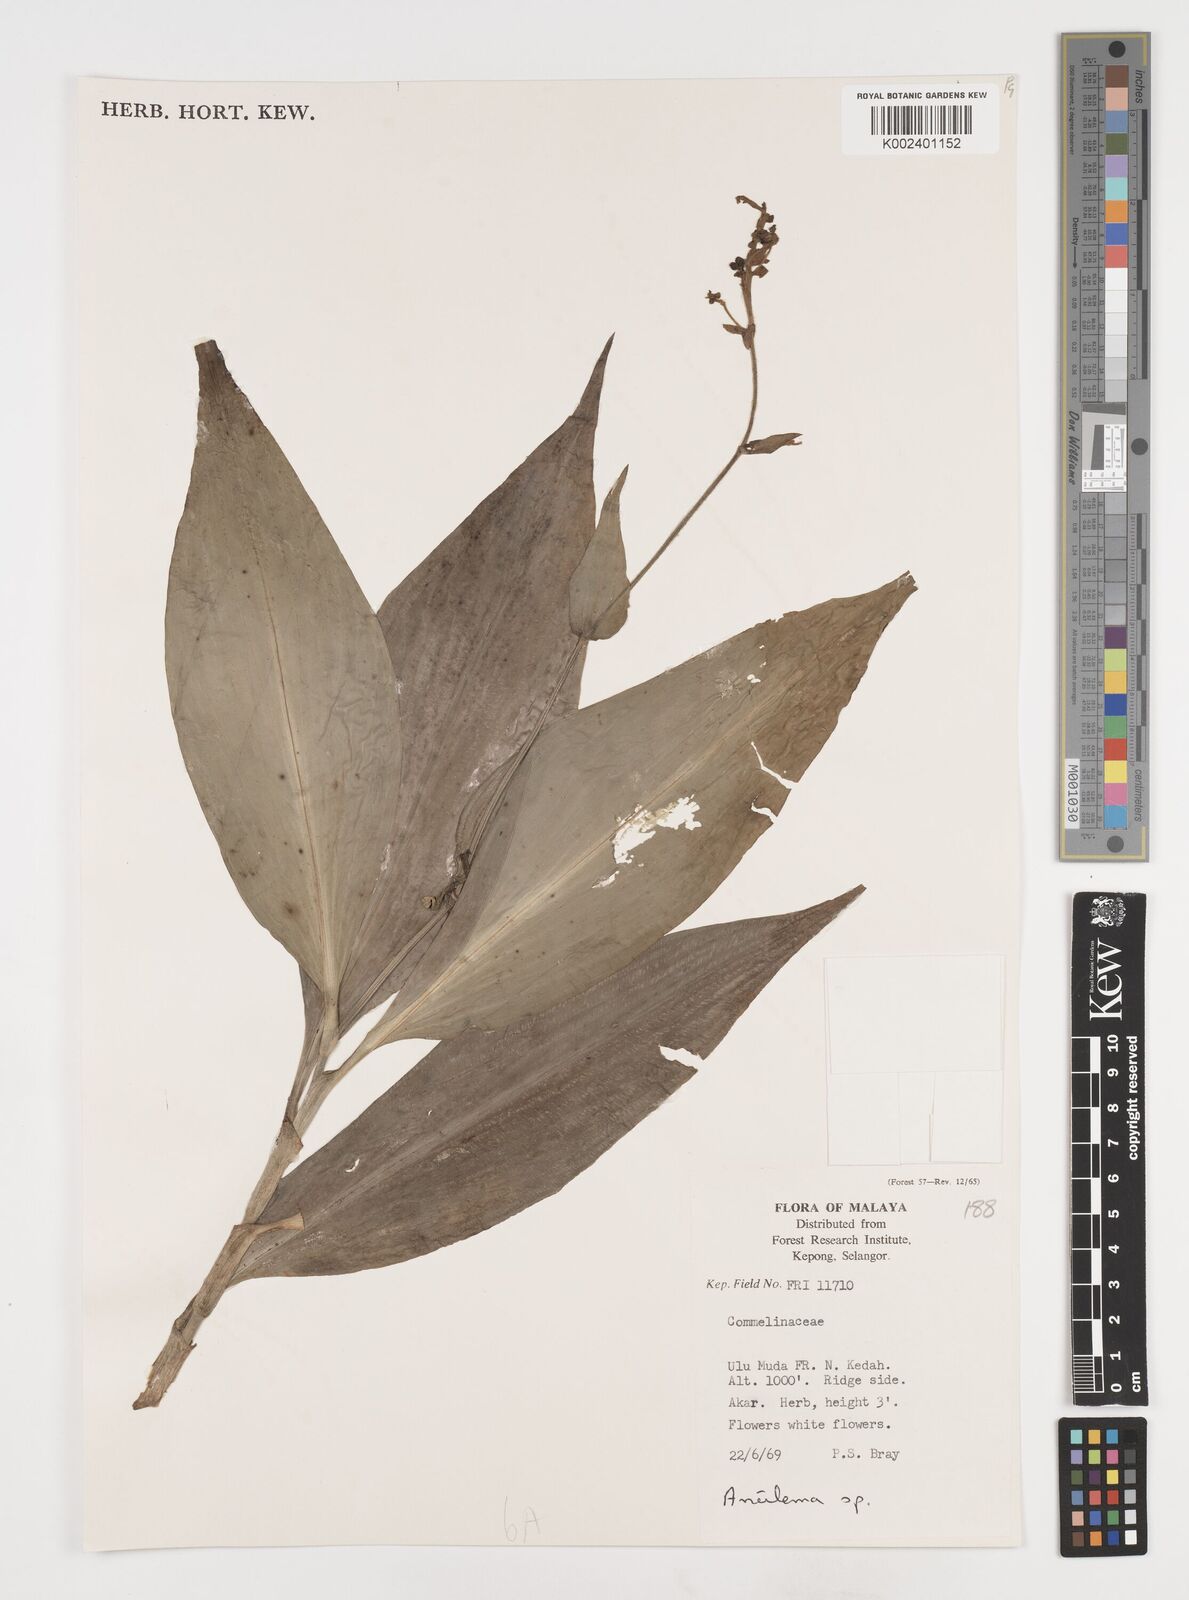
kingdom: Plantae
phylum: Tracheophyta
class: Liliopsida
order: Commelinales
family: Commelinaceae
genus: Pollia
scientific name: Pollia
